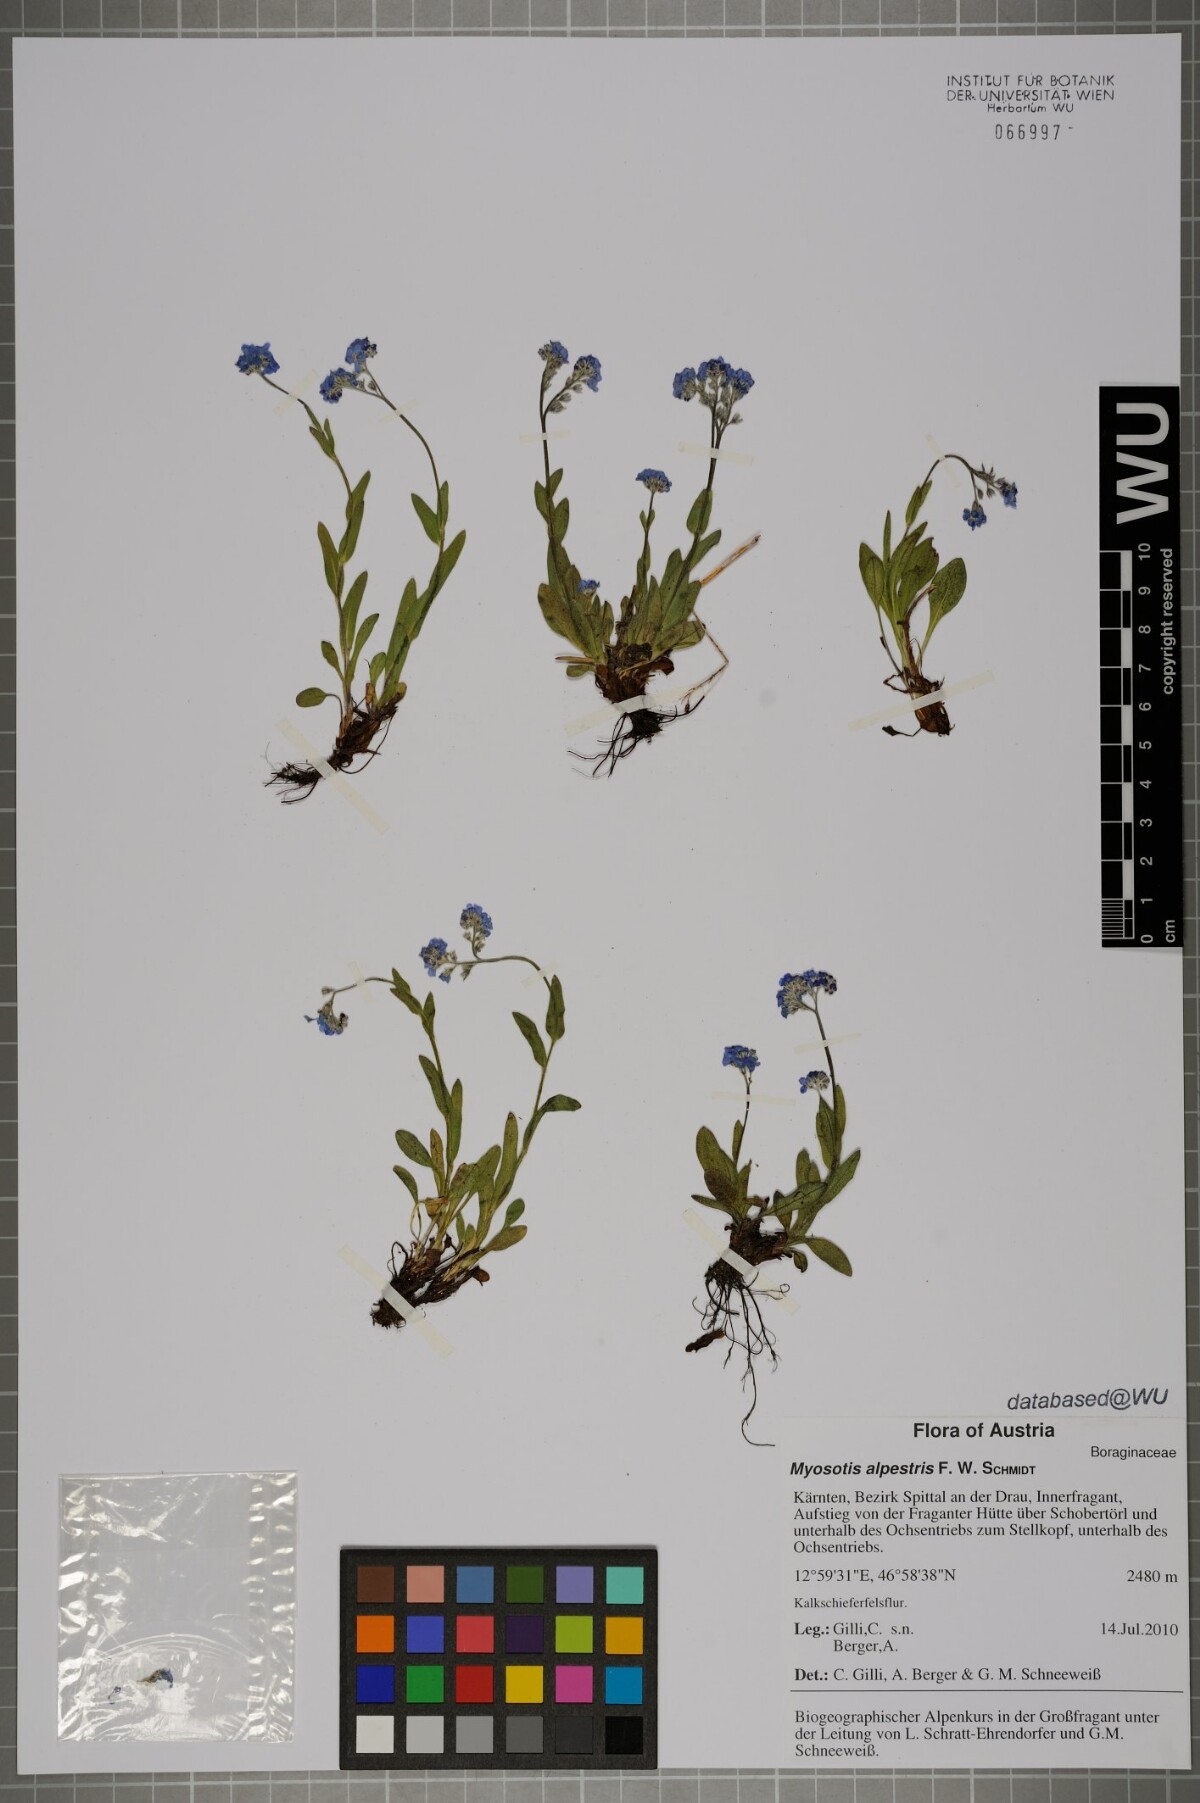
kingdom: Plantae
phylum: Tracheophyta
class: Magnoliopsida
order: Boraginales
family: Boraginaceae
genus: Myosotis
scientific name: Myosotis alpestris
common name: Alpine forget-me-not
